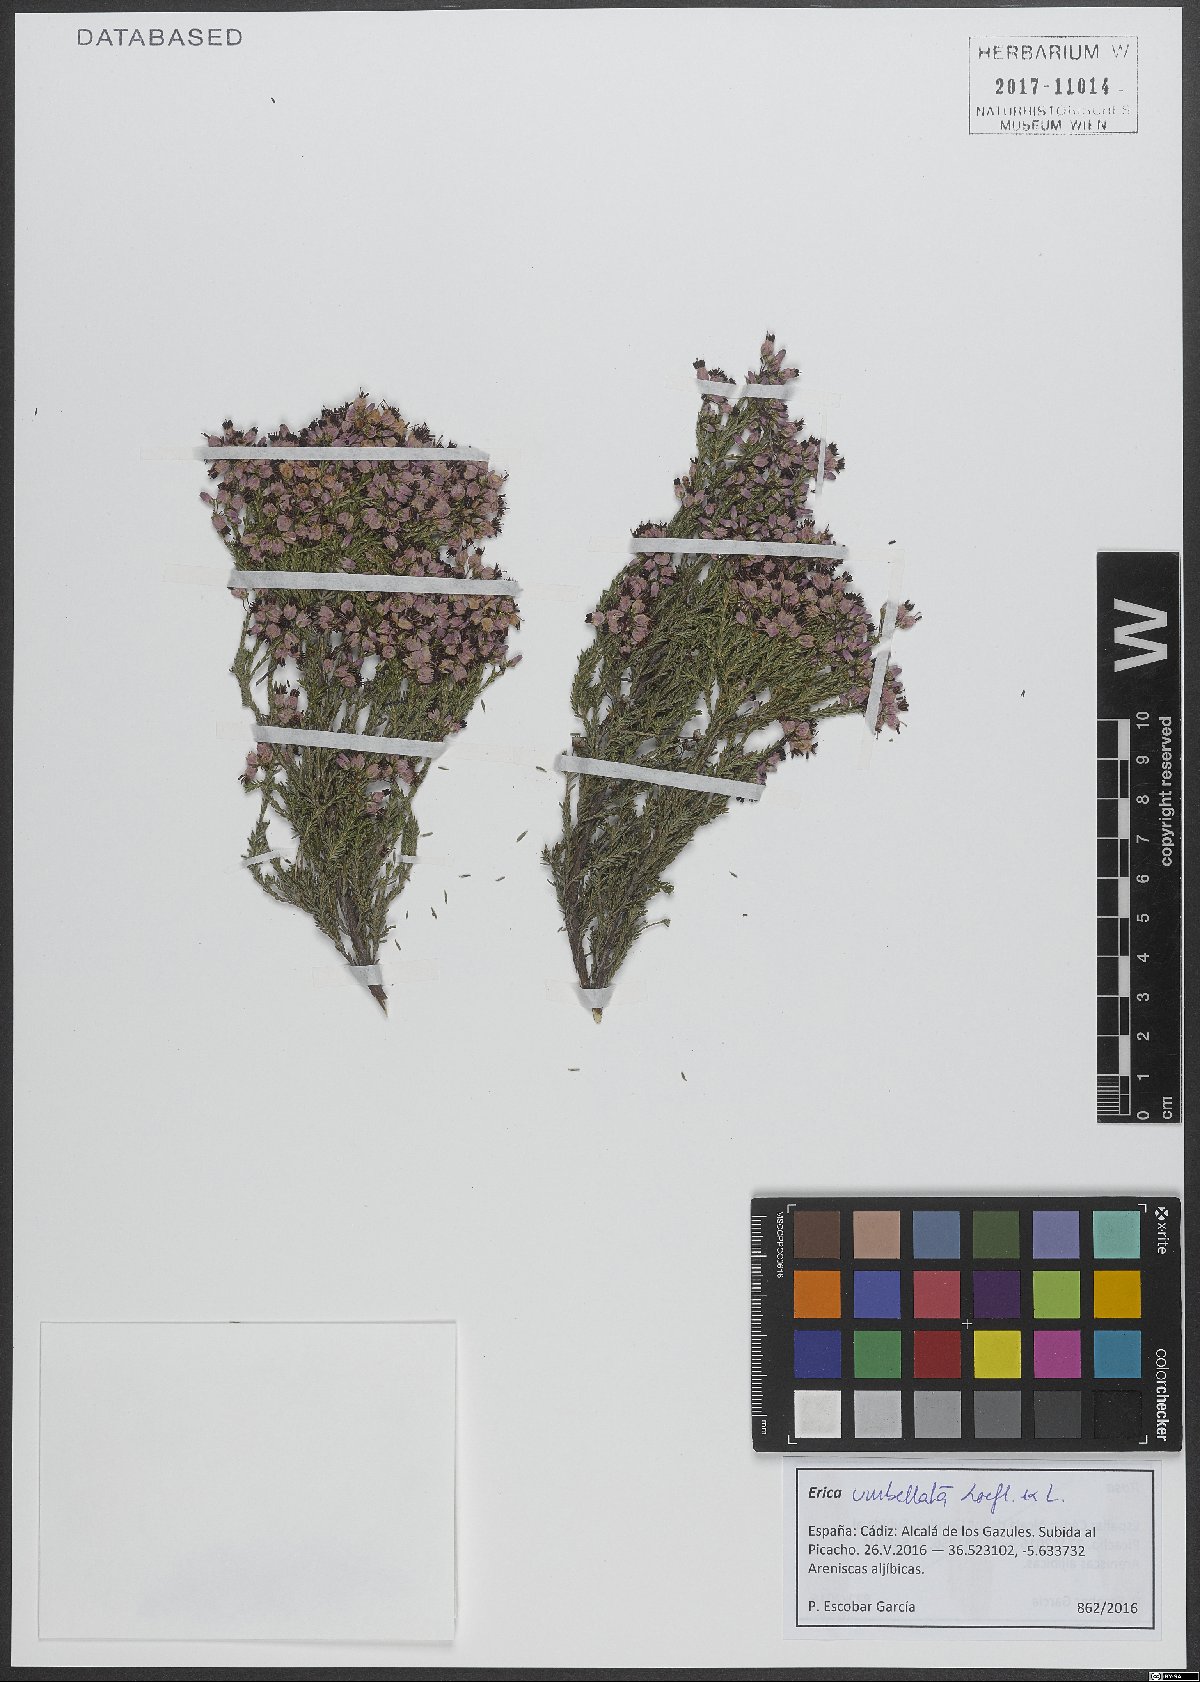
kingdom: Plantae
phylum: Tracheophyta
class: Magnoliopsida
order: Ericales
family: Ericaceae
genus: Erica
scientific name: Erica umbellata
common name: Dwarf spanish heath
